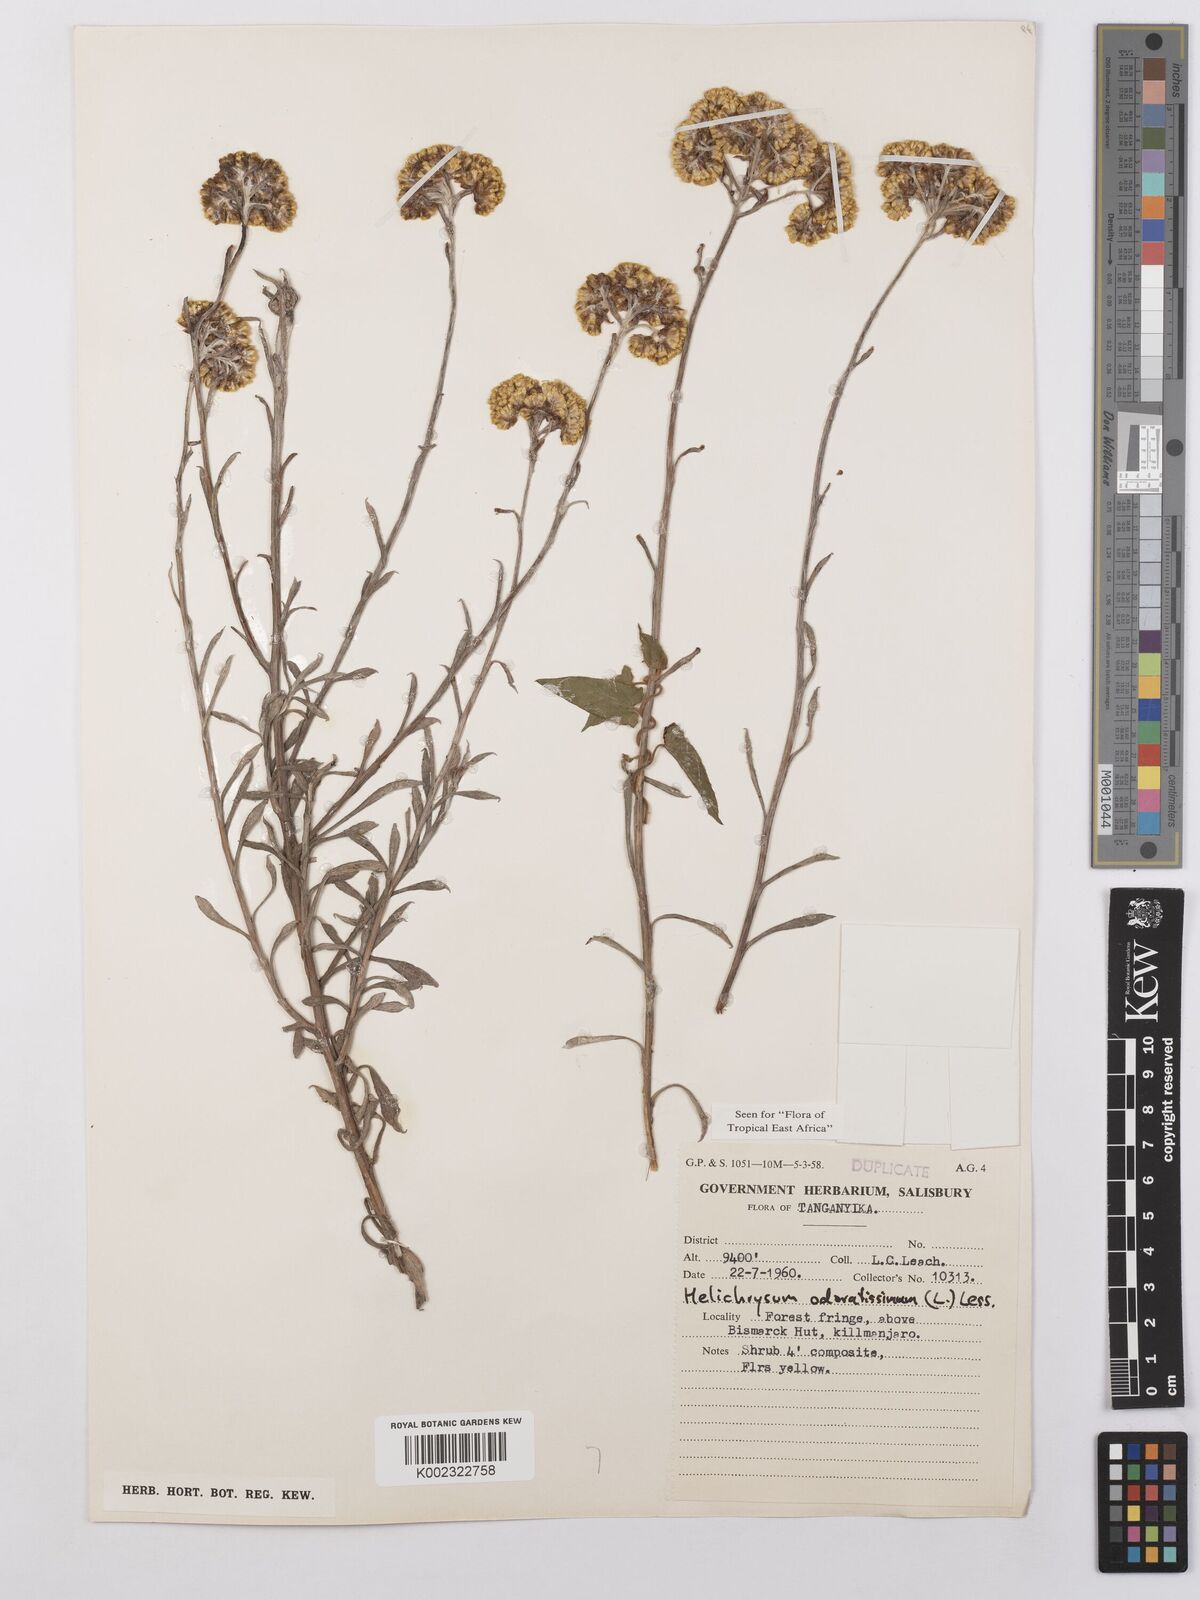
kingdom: Plantae
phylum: Tracheophyta
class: Magnoliopsida
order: Asterales
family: Asteraceae
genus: Helichrysum
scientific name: Helichrysum odoratissimum
